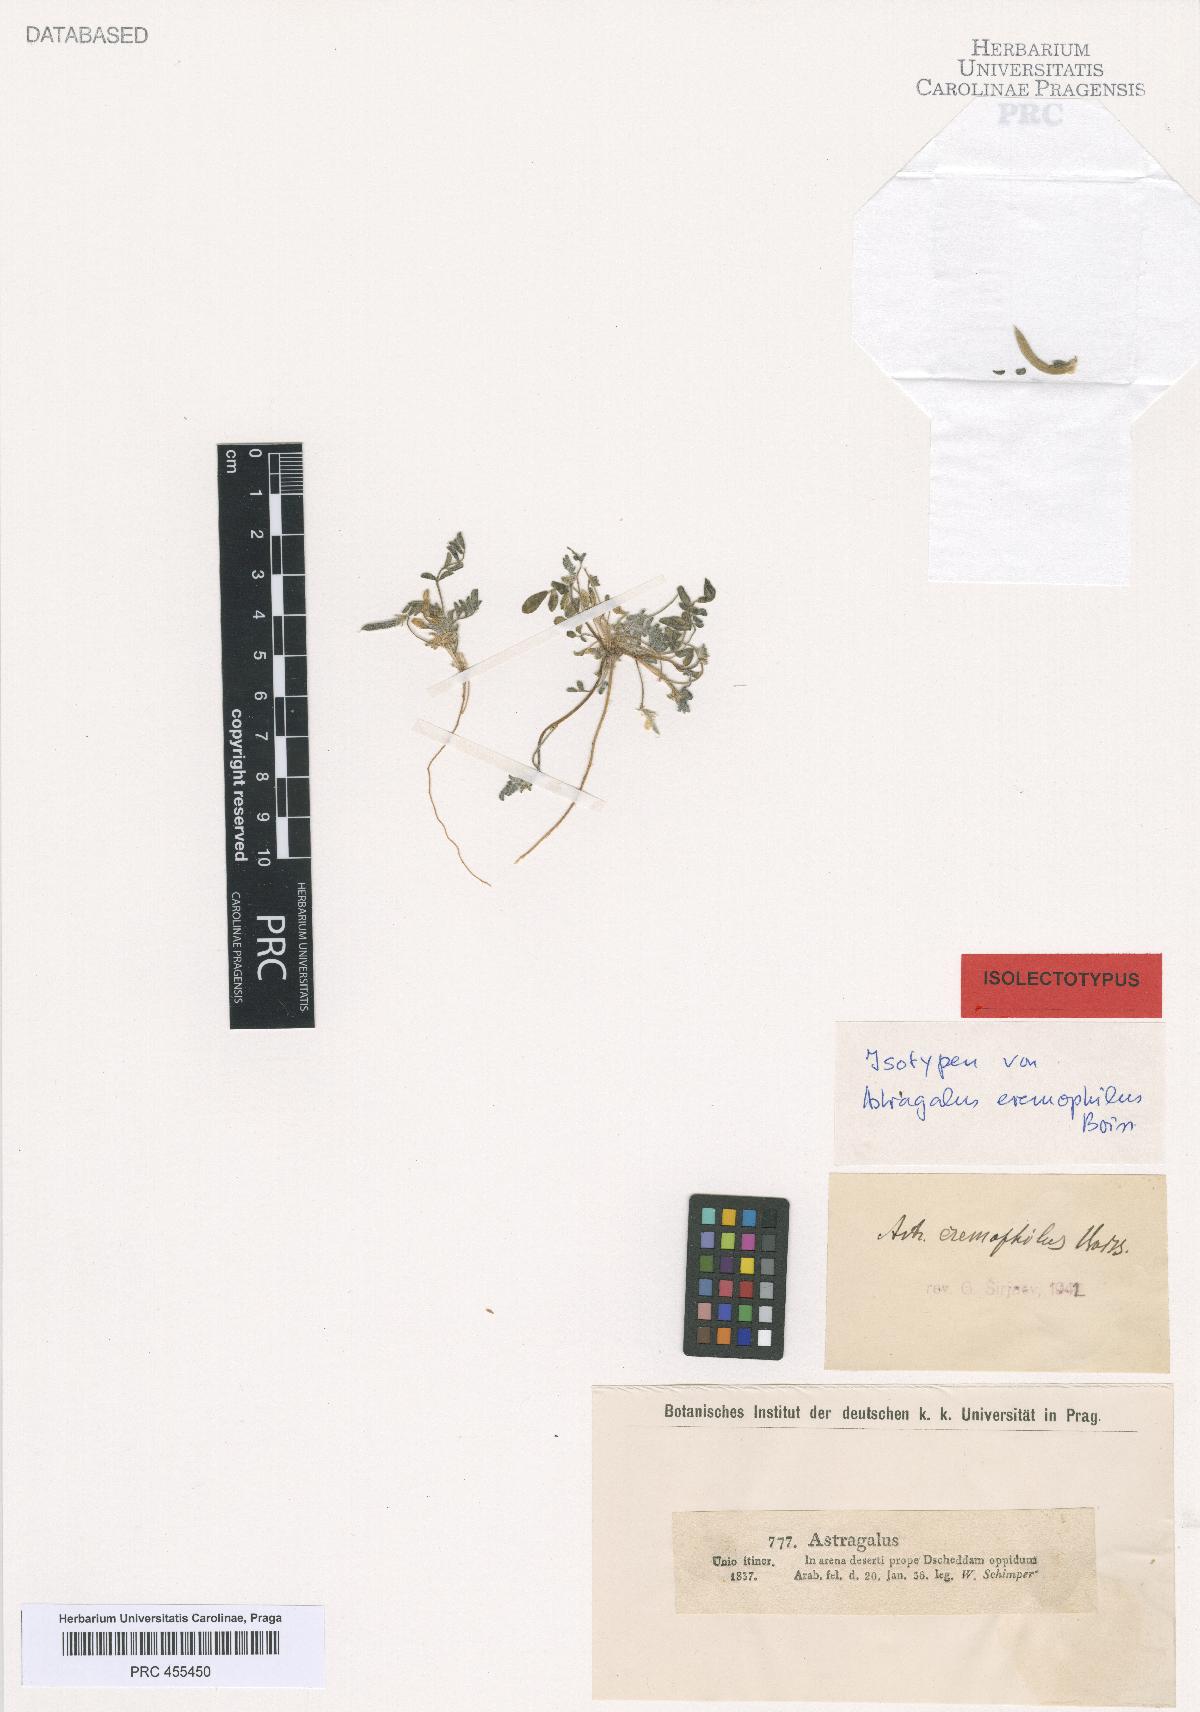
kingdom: Plantae
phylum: Tracheophyta
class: Magnoliopsida
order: Fabales
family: Fabaceae
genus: Astragalus
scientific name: Astragalus eremophilus
